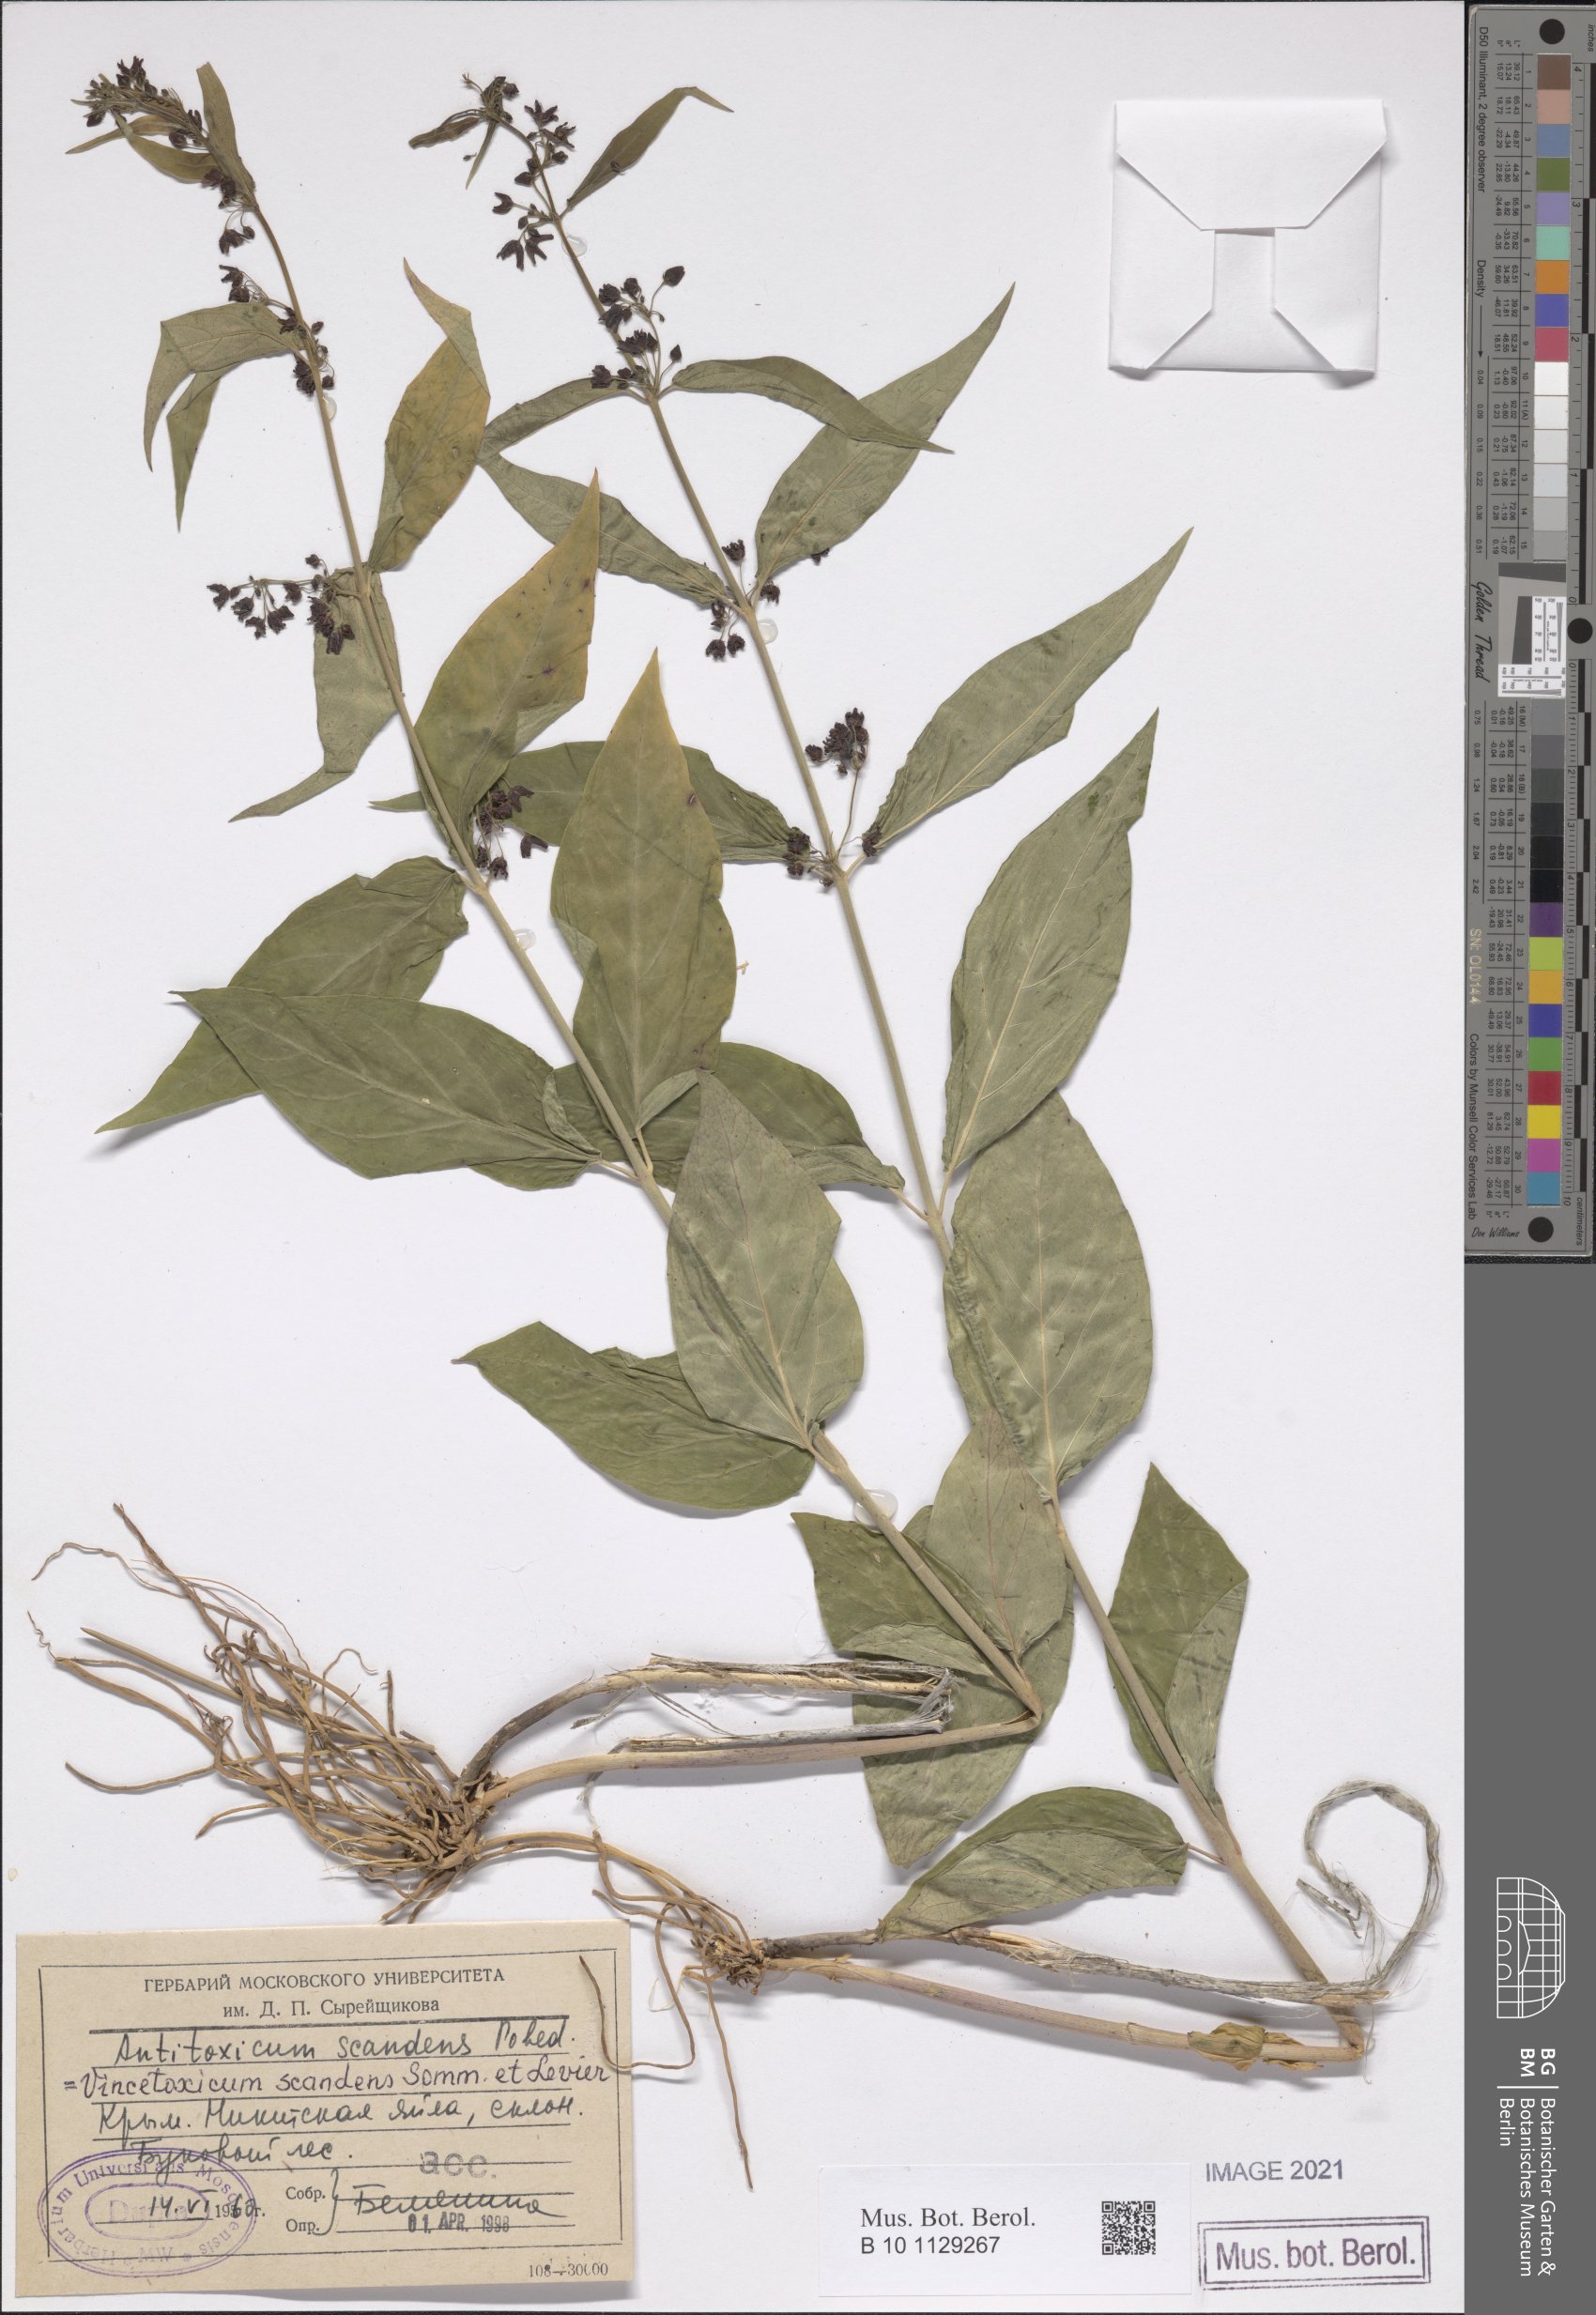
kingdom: Plantae
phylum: Tracheophyta
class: Magnoliopsida
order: Gentianales
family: Apocynaceae
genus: Vincetoxicum
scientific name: Vincetoxicum scandens
